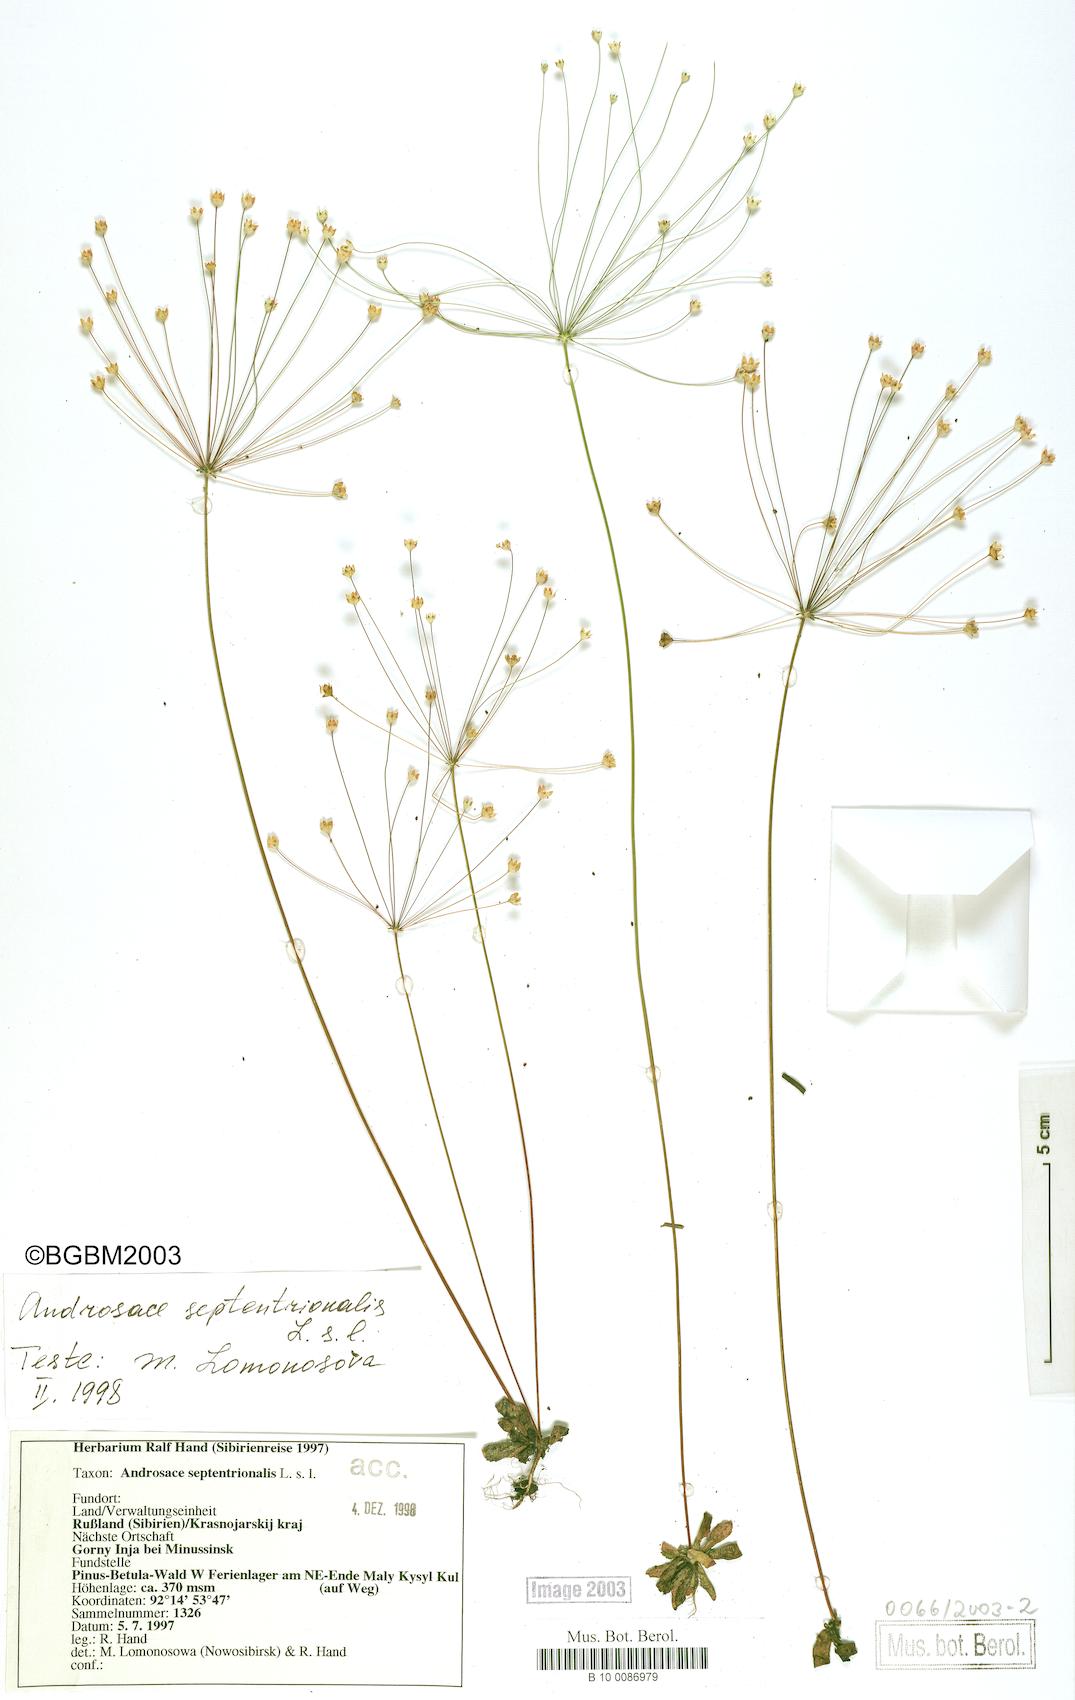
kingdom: Plantae
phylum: Tracheophyta
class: Magnoliopsida
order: Ericales
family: Primulaceae
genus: Androsace
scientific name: Androsace lactiflora
